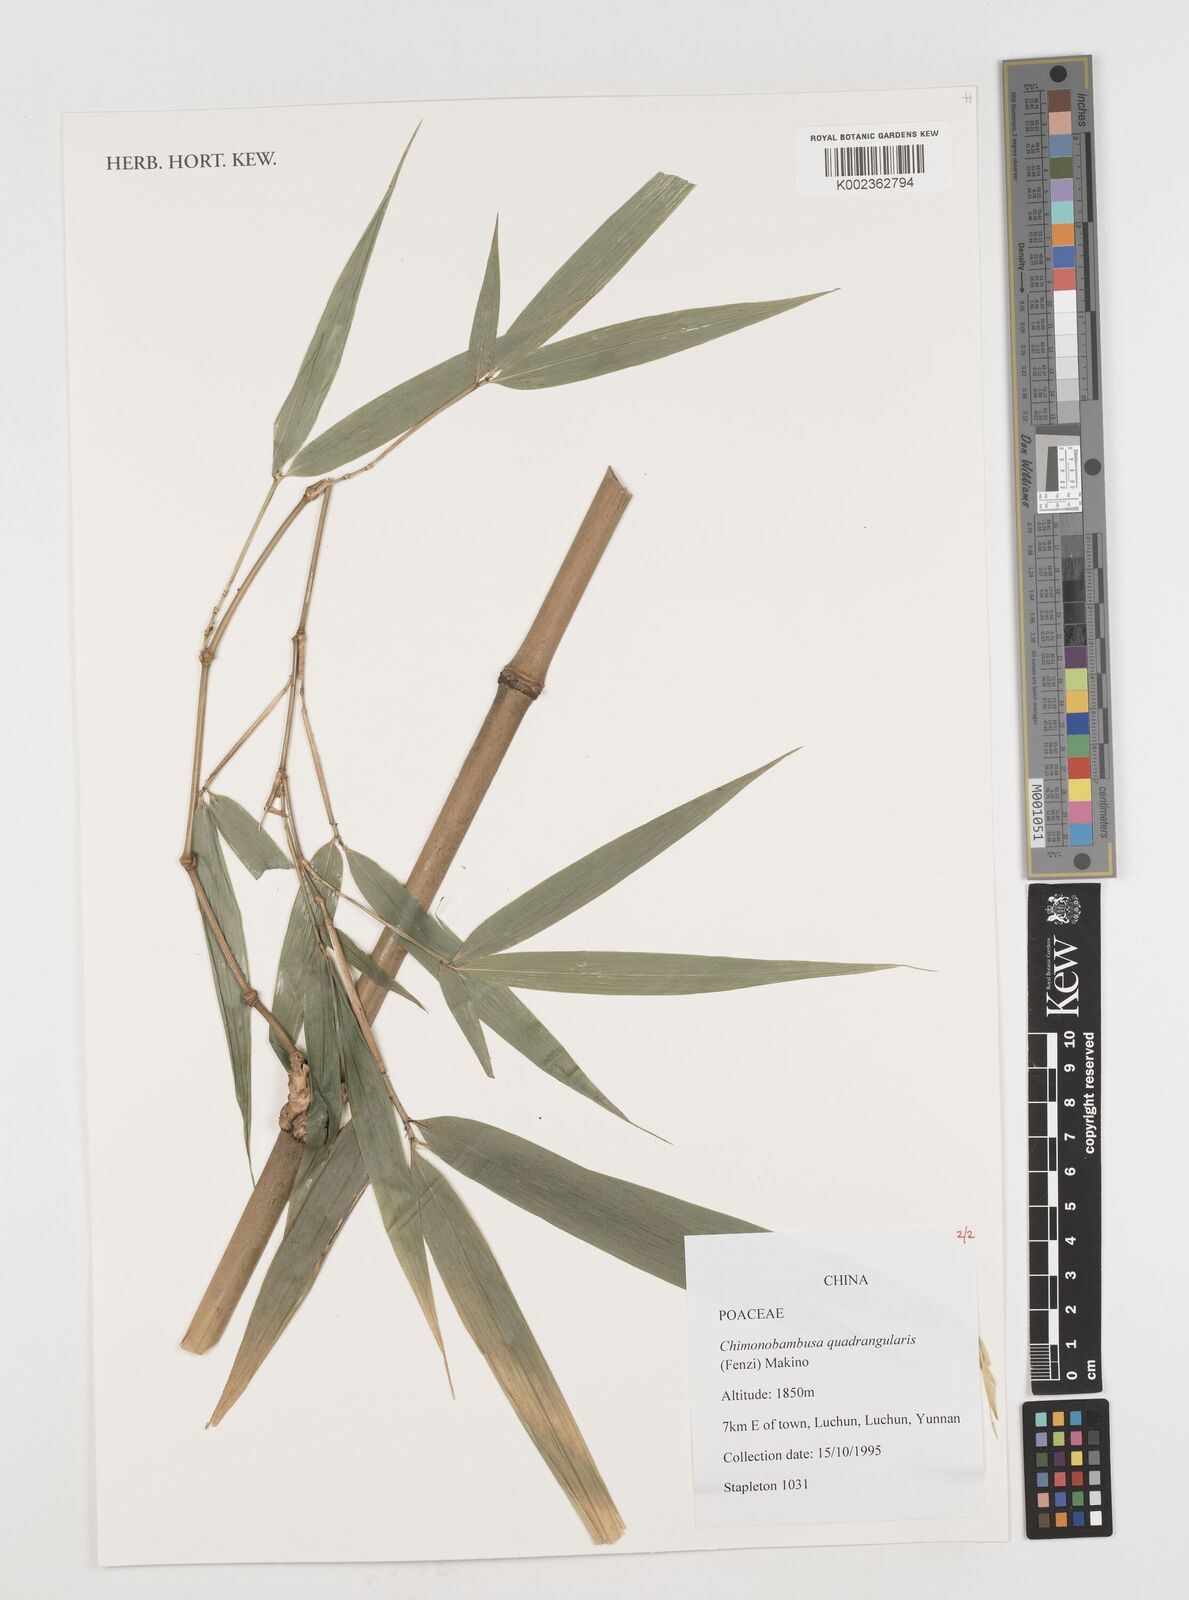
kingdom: Plantae
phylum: Tracheophyta
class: Liliopsida
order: Poales
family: Poaceae
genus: Chimonobambusa
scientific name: Chimonobambusa quadrangularis
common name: Square-stemmed bamboo
